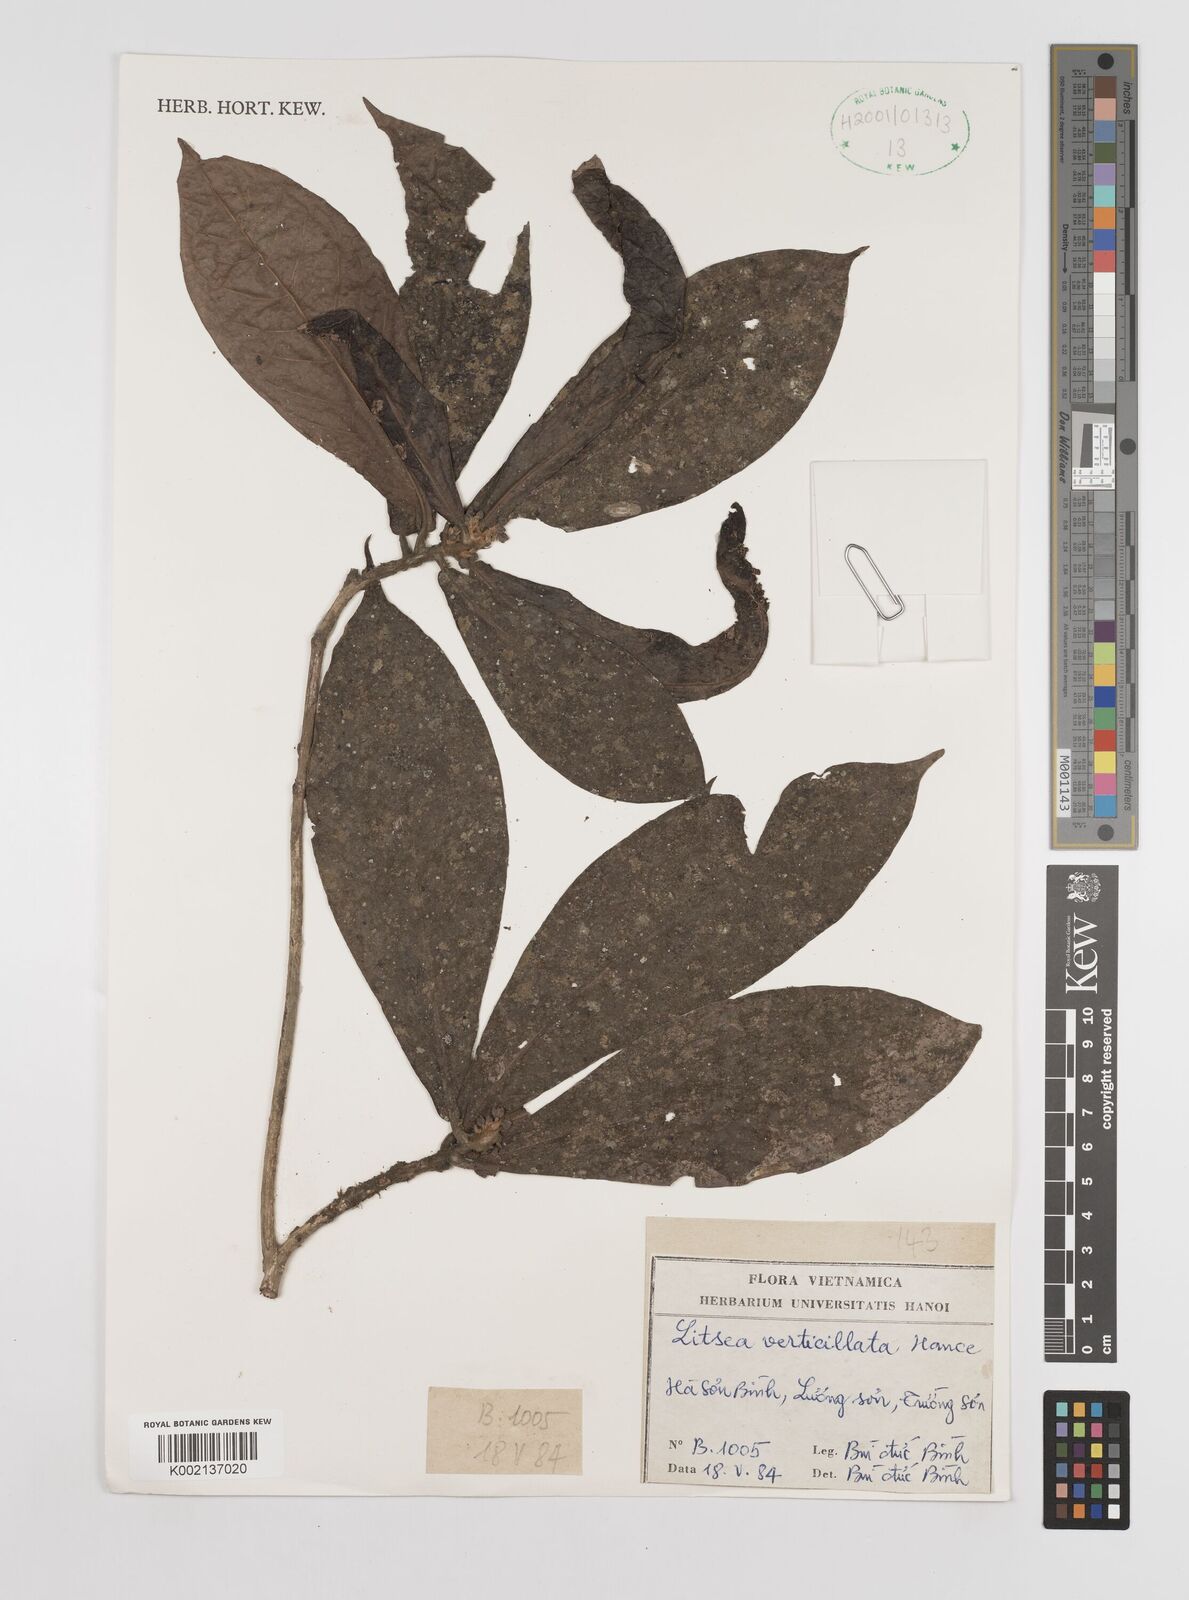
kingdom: Plantae
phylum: Tracheophyta
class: Magnoliopsida
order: Laurales
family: Lauraceae
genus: Litsea
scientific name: Litsea verticillata
